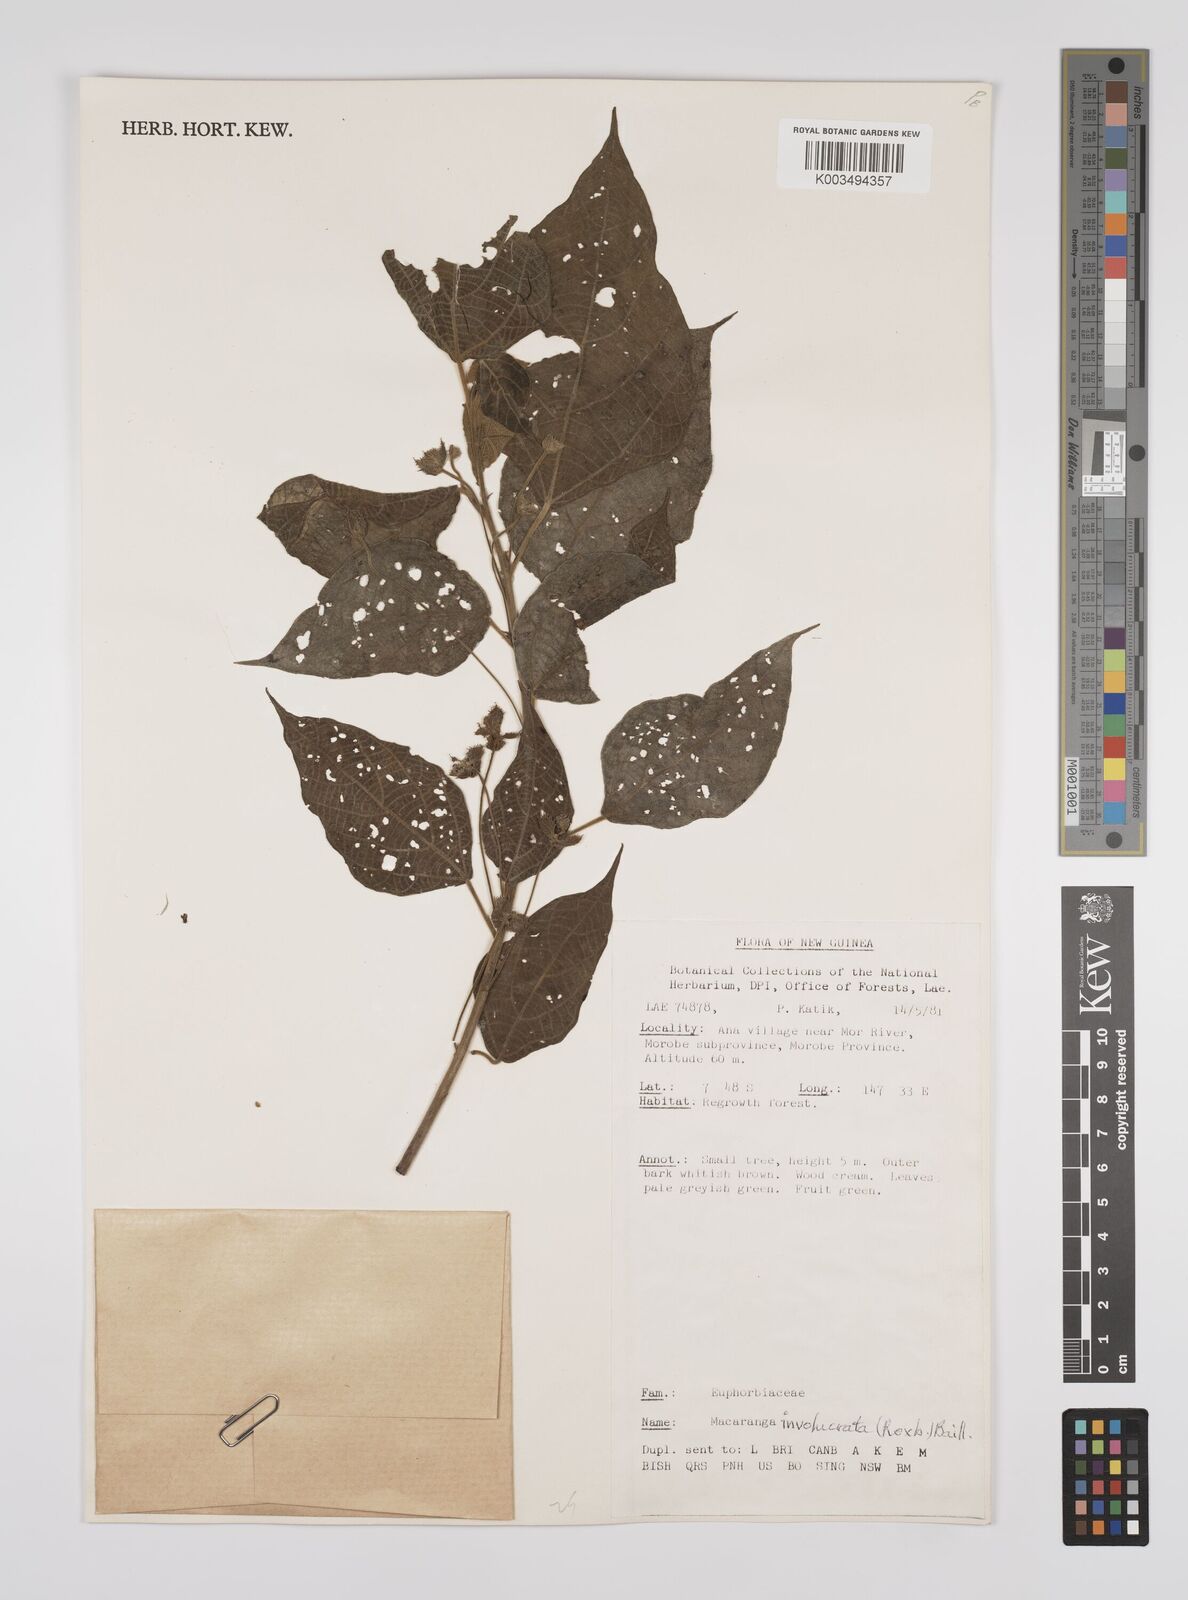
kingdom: Plantae
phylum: Tracheophyta
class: Magnoliopsida
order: Malpighiales
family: Euphorbiaceae
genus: Macaranga
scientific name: Macaranga involucrata
